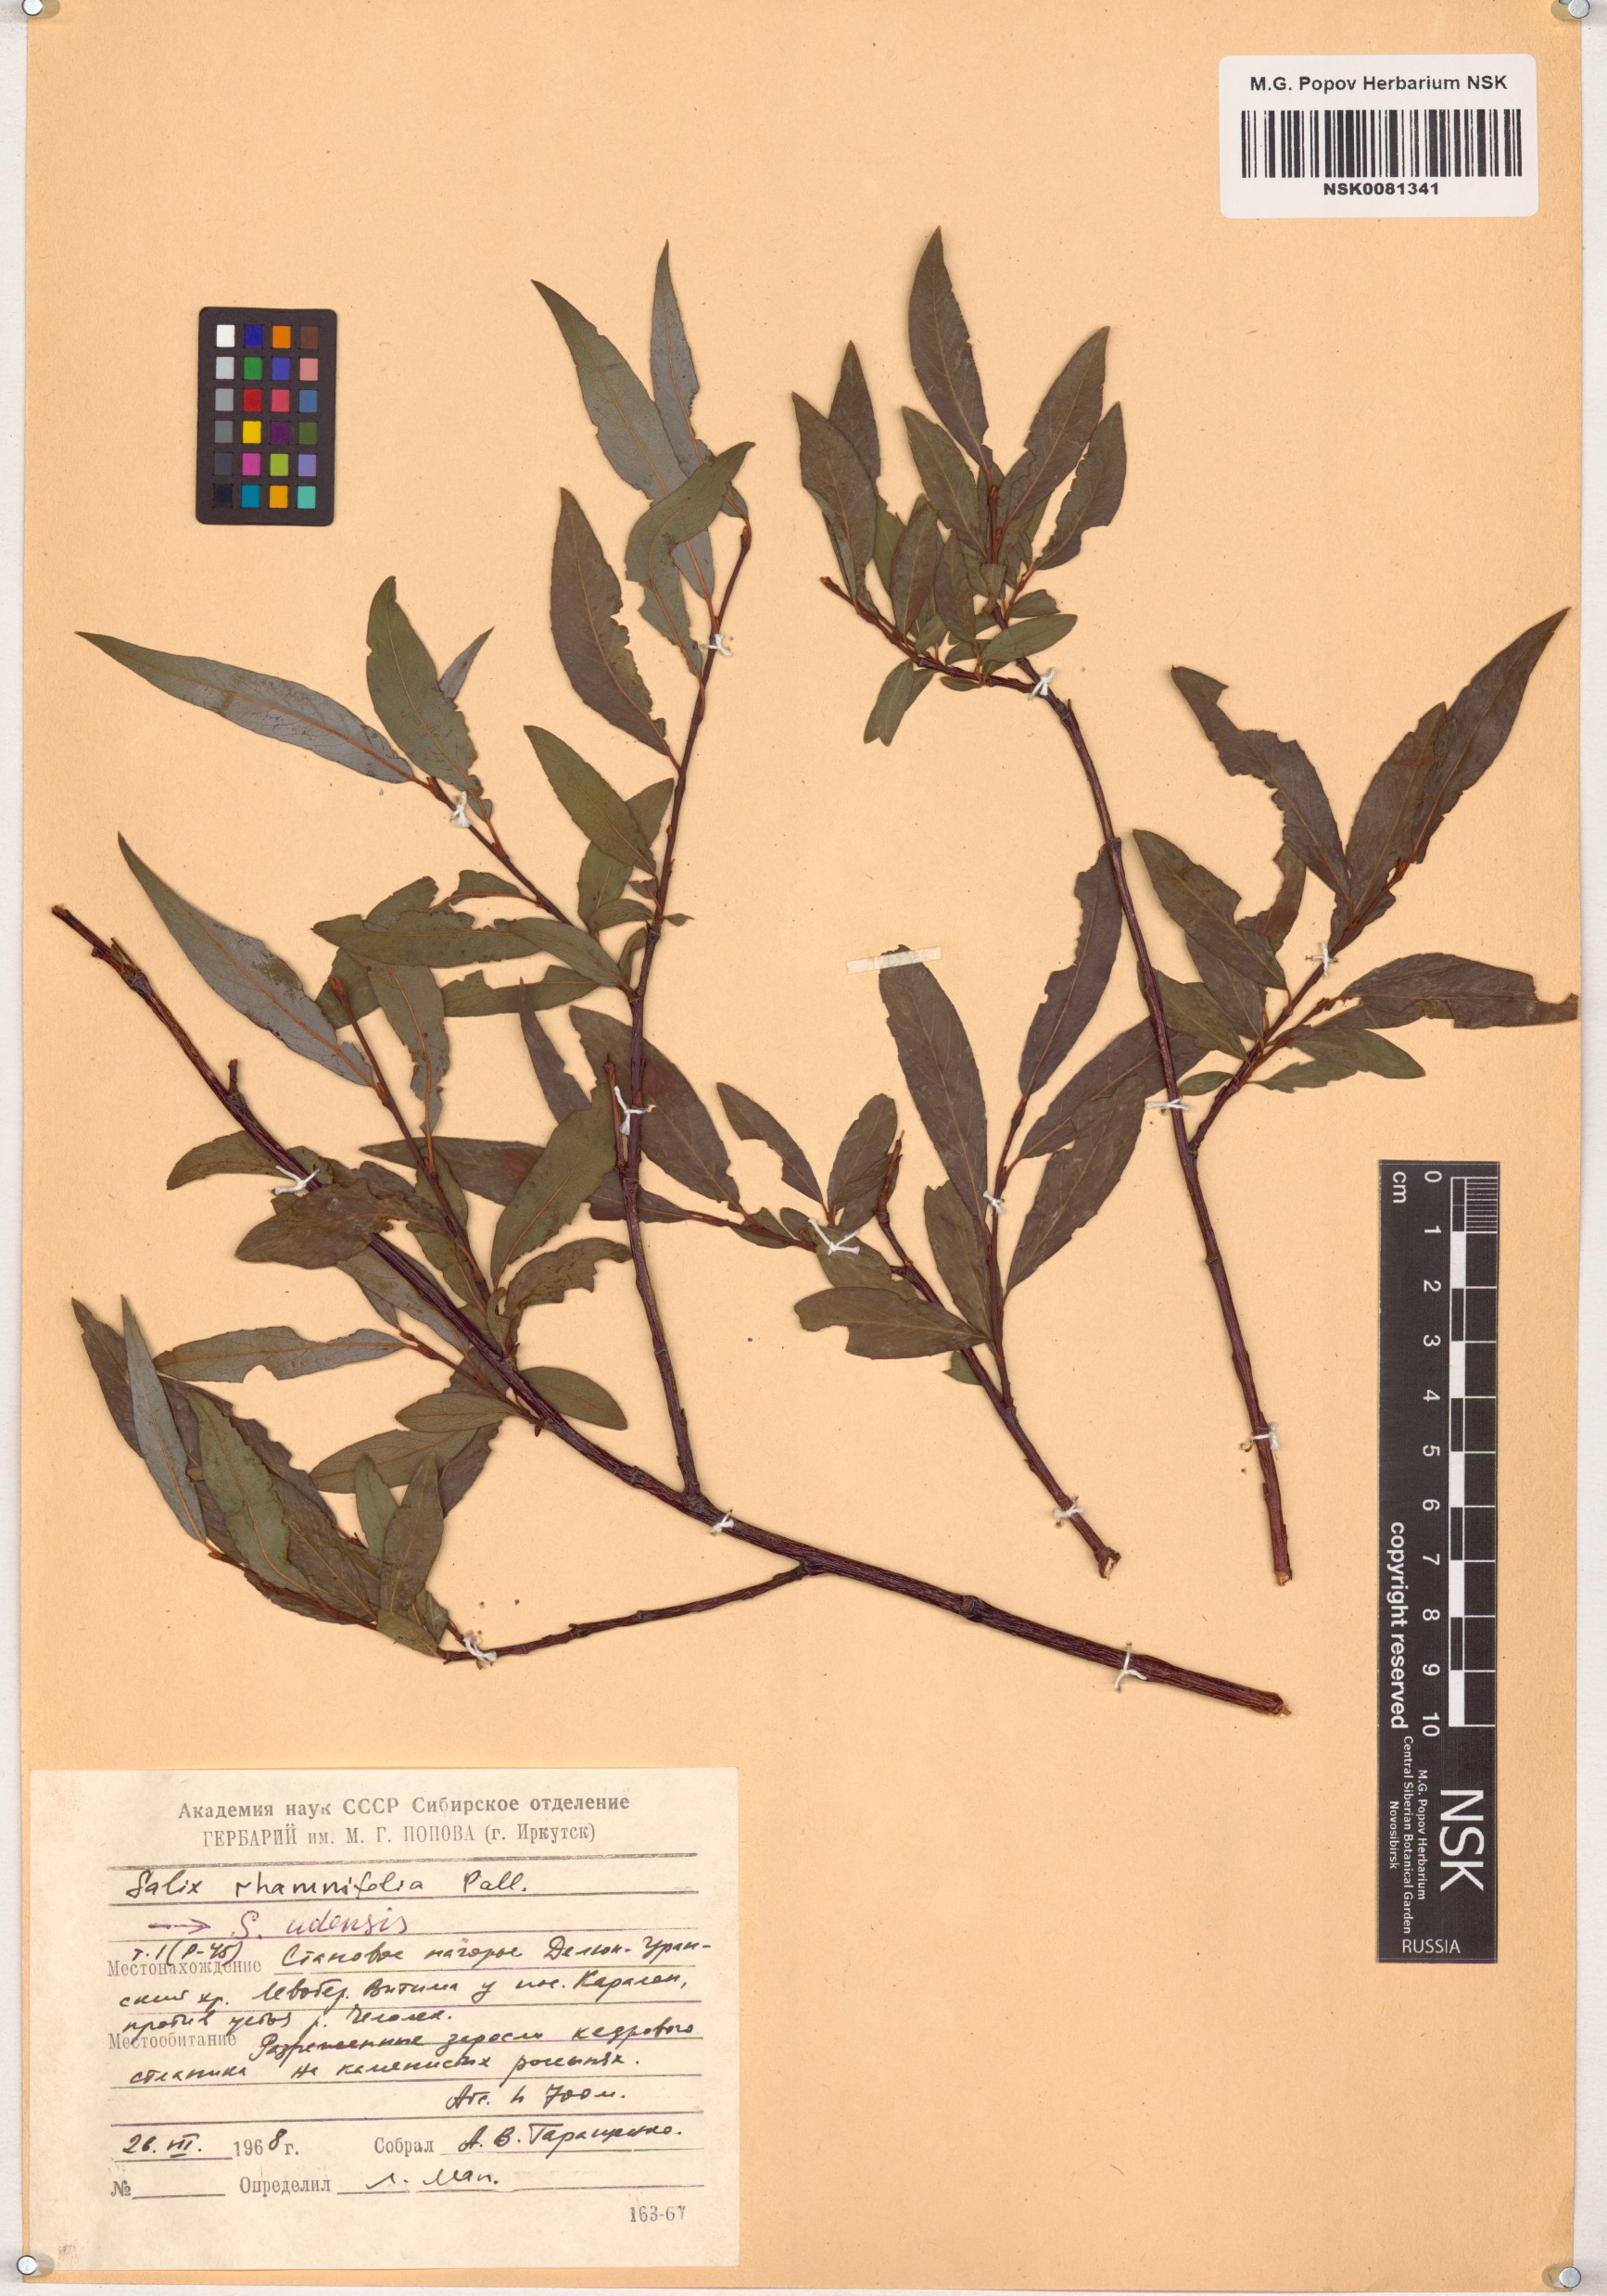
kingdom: Plantae
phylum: Tracheophyta
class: Magnoliopsida
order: Malpighiales
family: Salicaceae
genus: Salix
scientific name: Salix rhamnifolia
